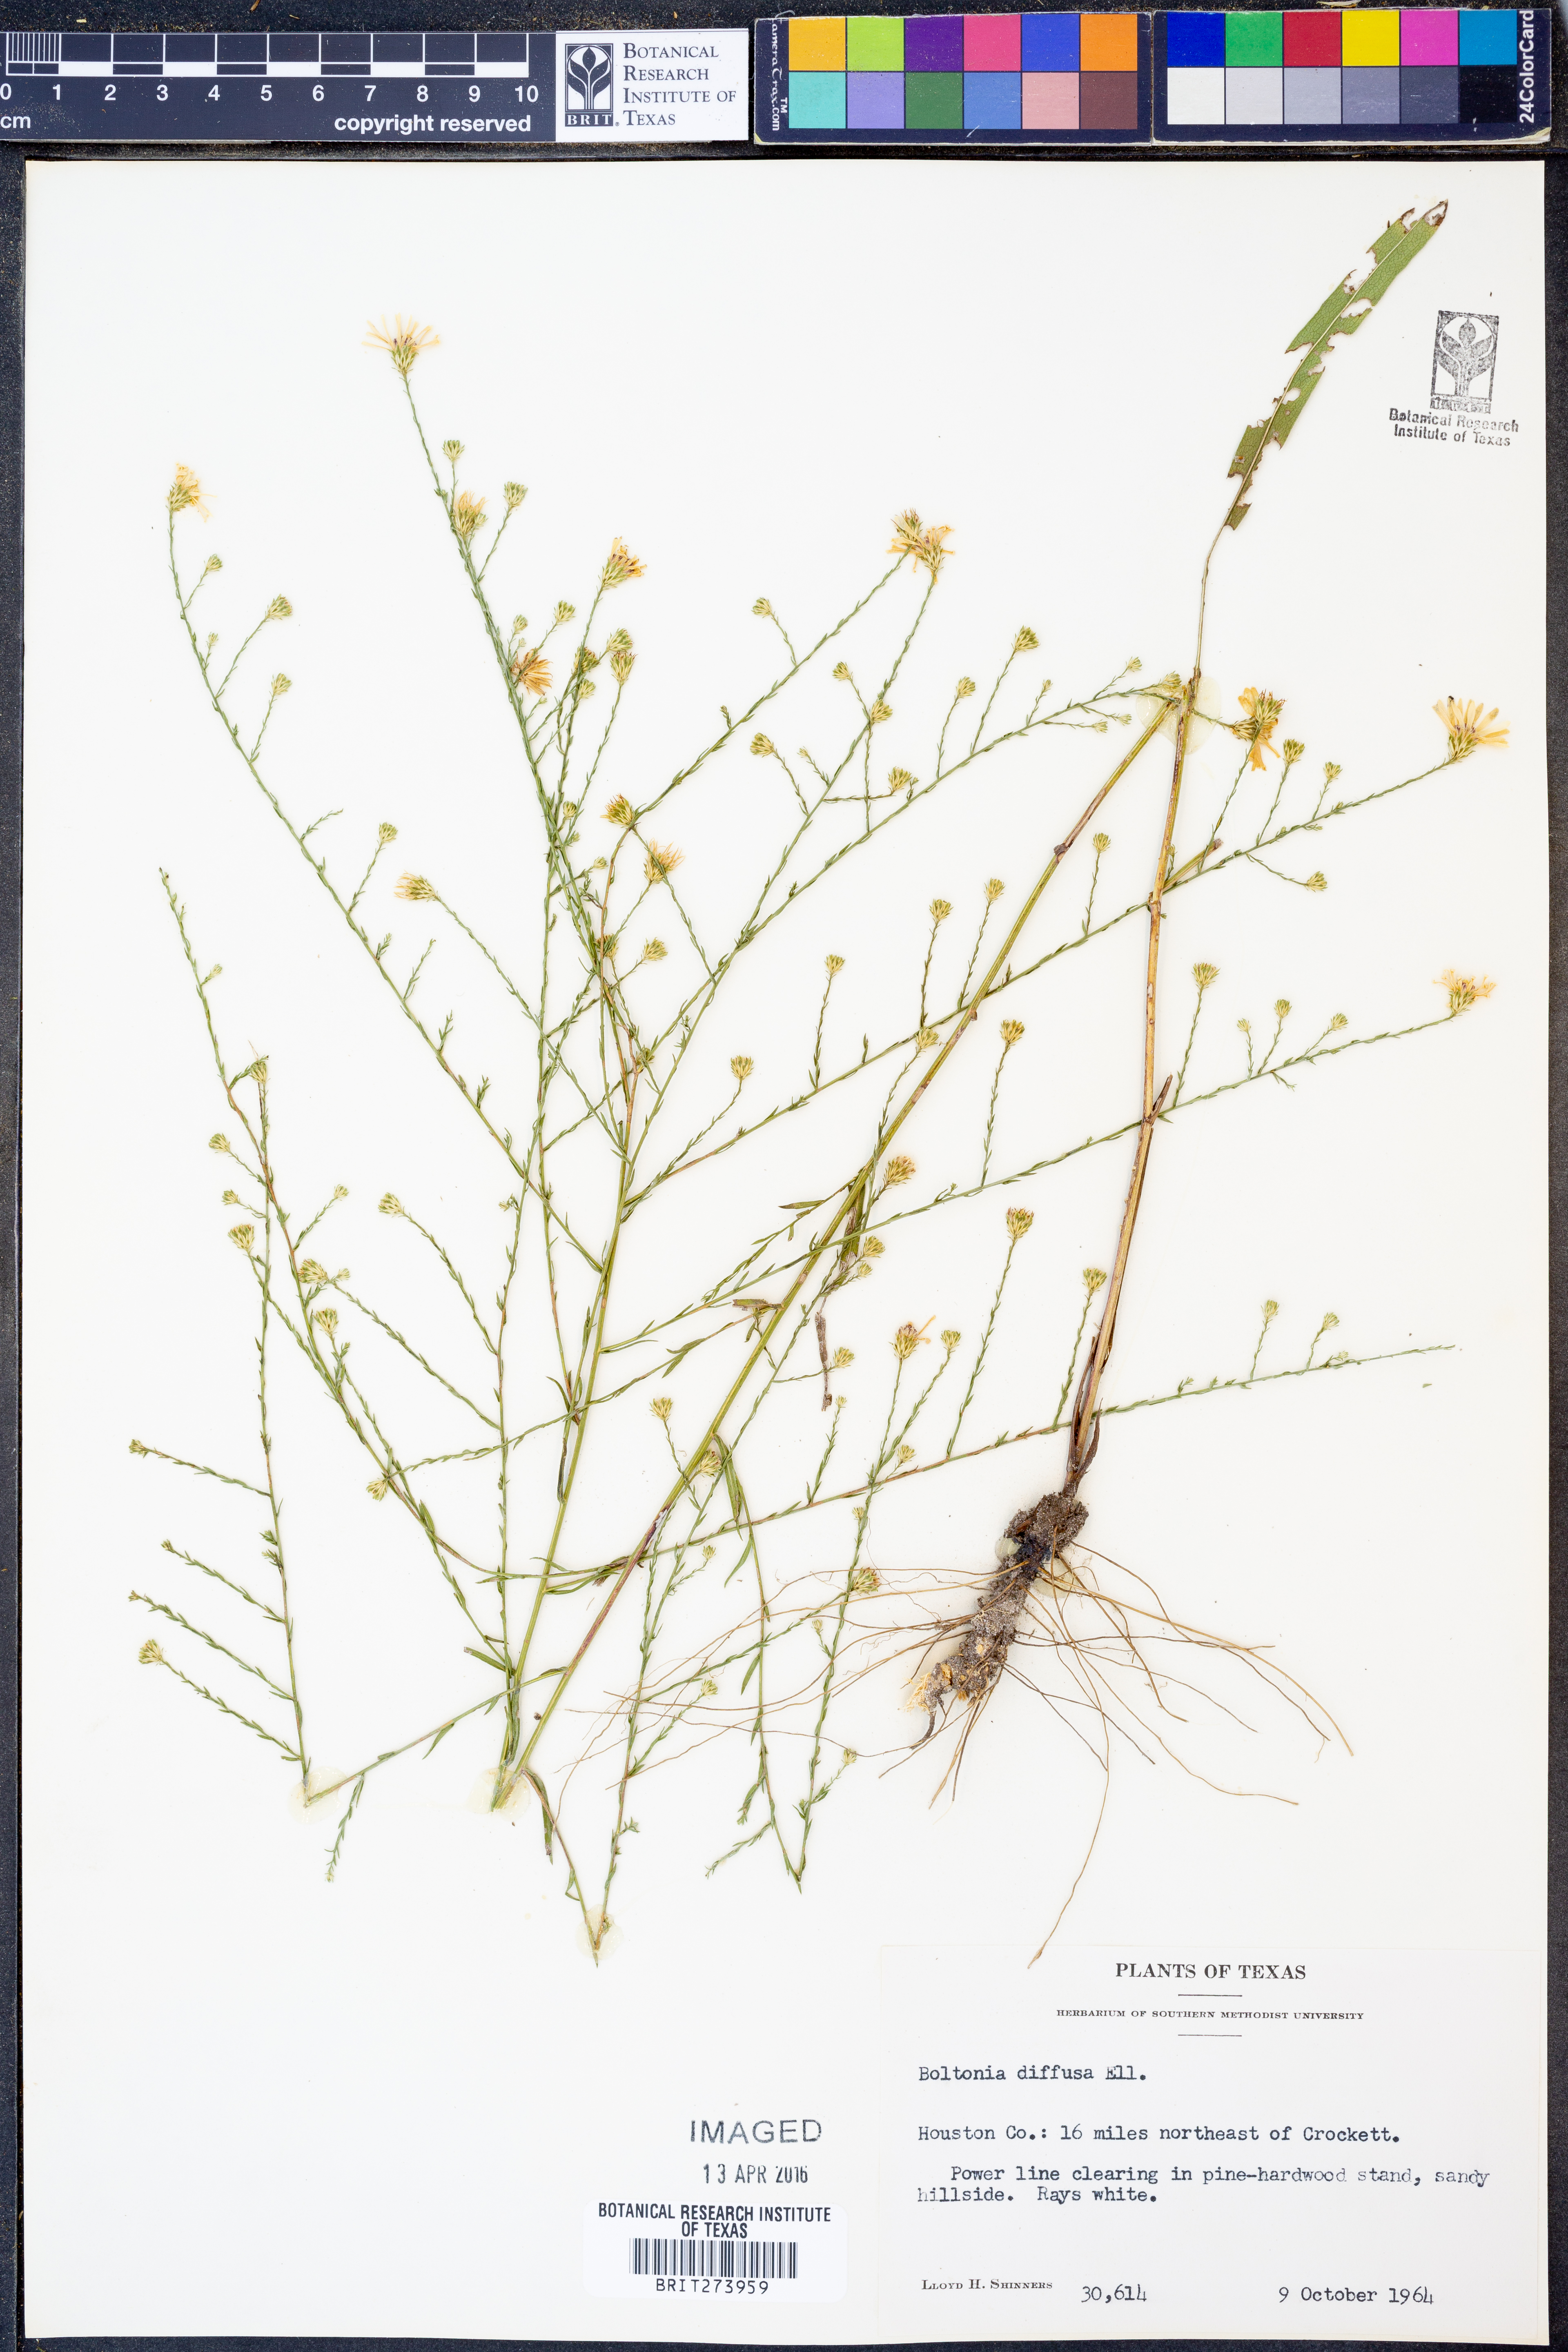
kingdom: Plantae
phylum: Tracheophyta
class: Magnoliopsida
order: Asterales
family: Asteraceae
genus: Boltonia
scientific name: Boltonia diffusa
